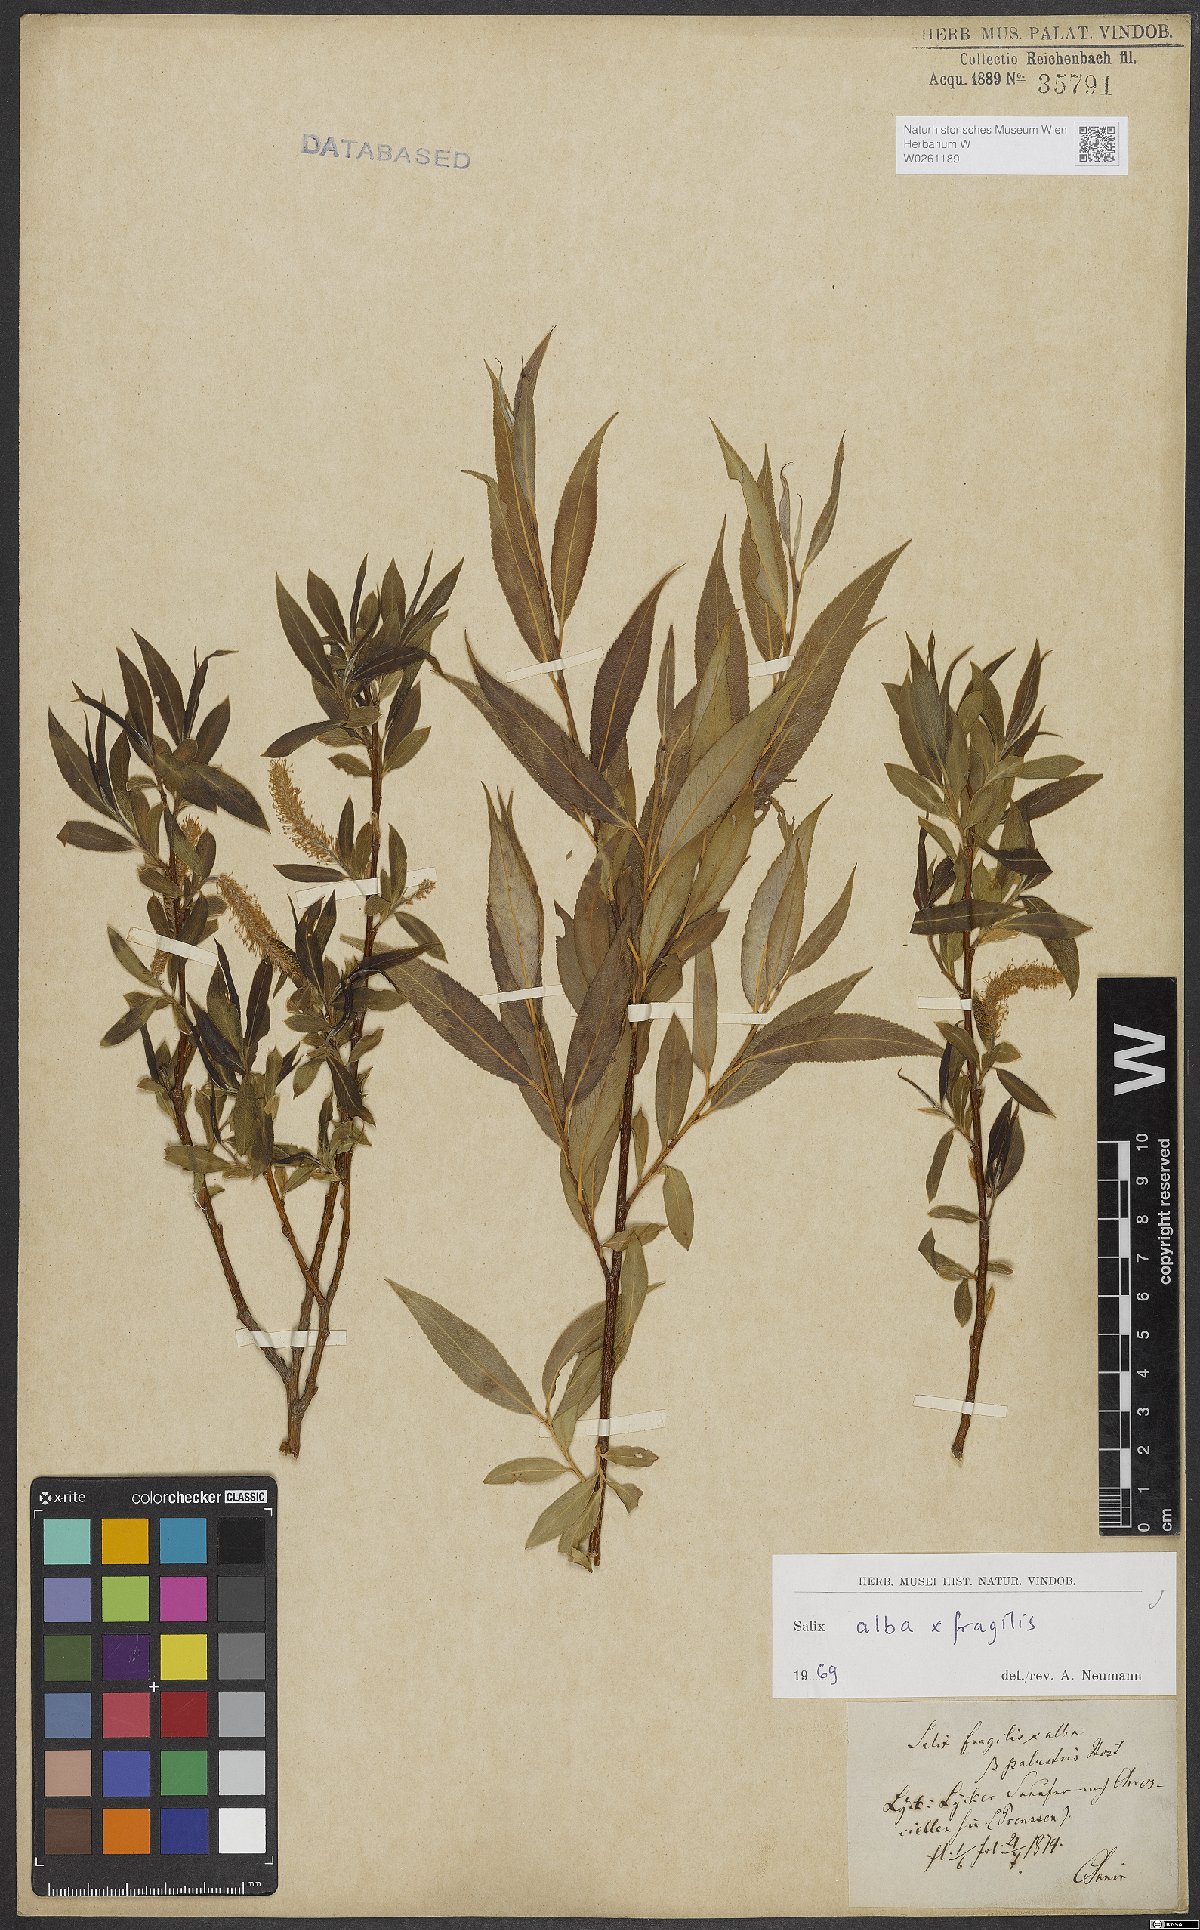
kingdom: Plantae
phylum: Tracheophyta
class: Magnoliopsida
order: Malpighiales
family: Salicaceae
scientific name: Salicaceae
